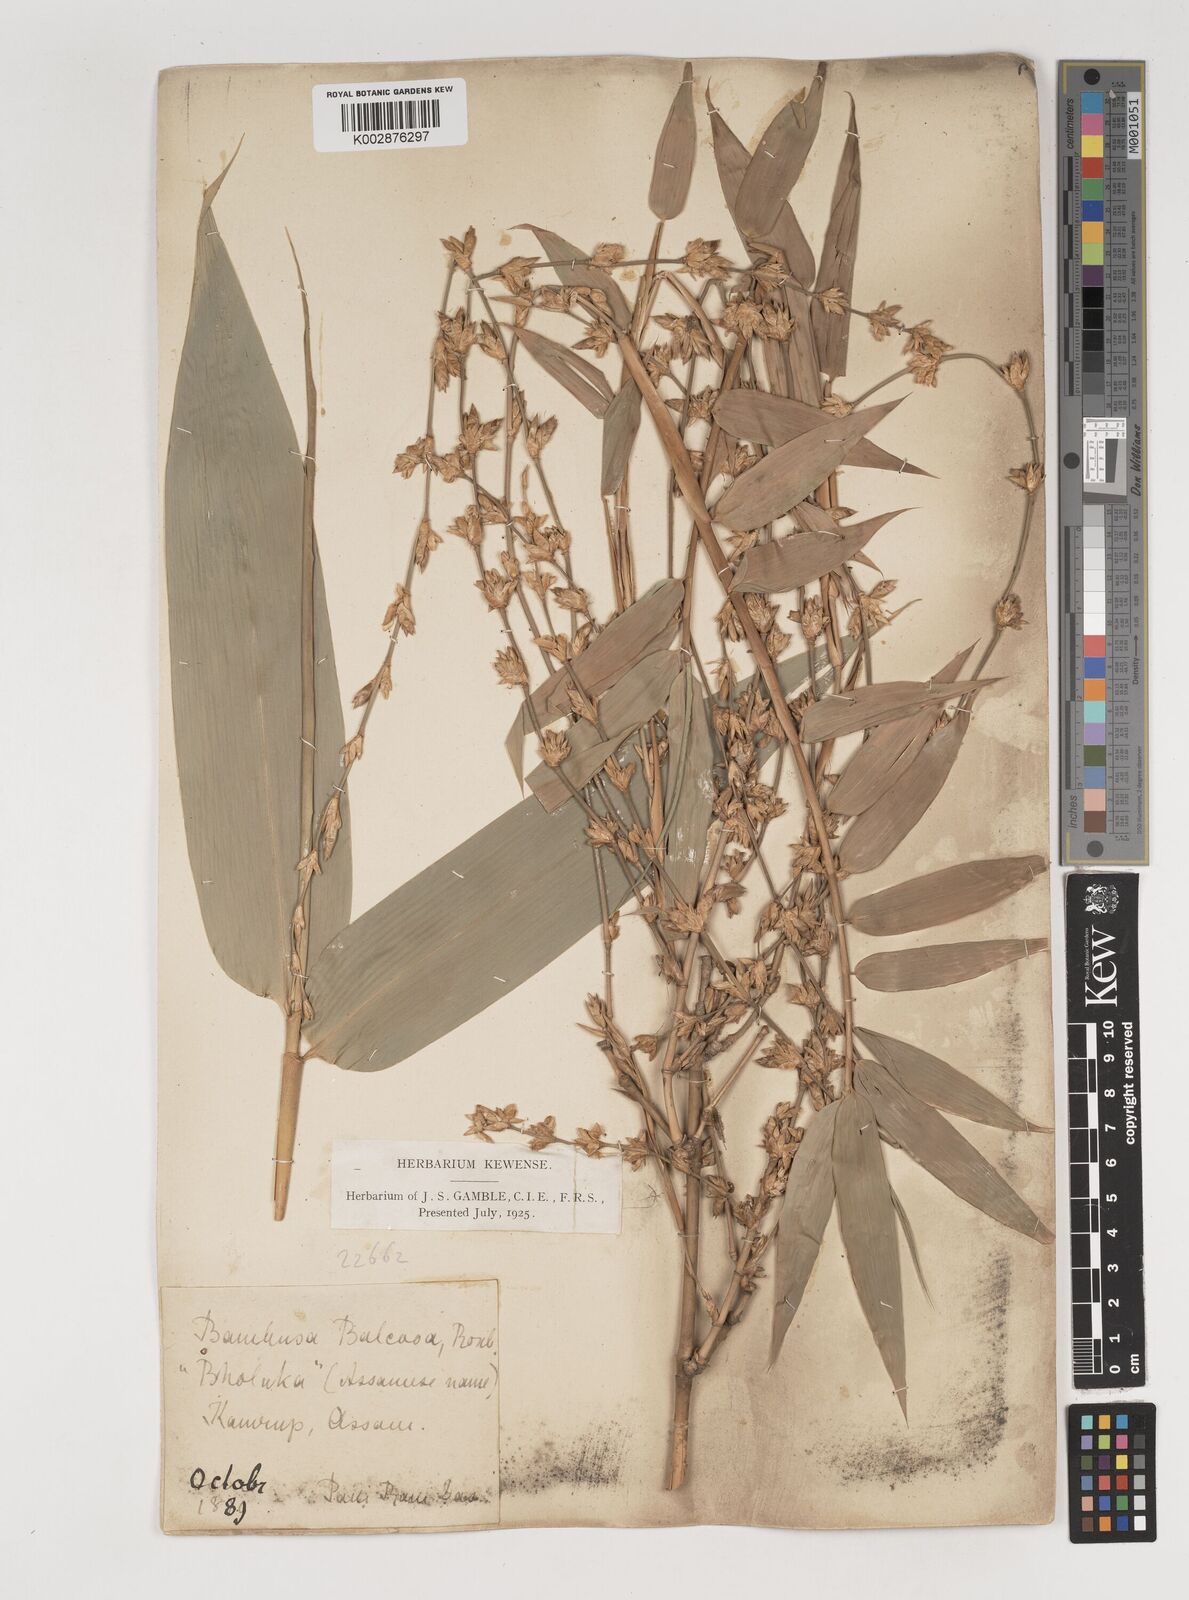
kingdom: Plantae
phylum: Tracheophyta
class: Liliopsida
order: Poales
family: Poaceae
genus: Bambusa
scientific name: Bambusa balcooa
